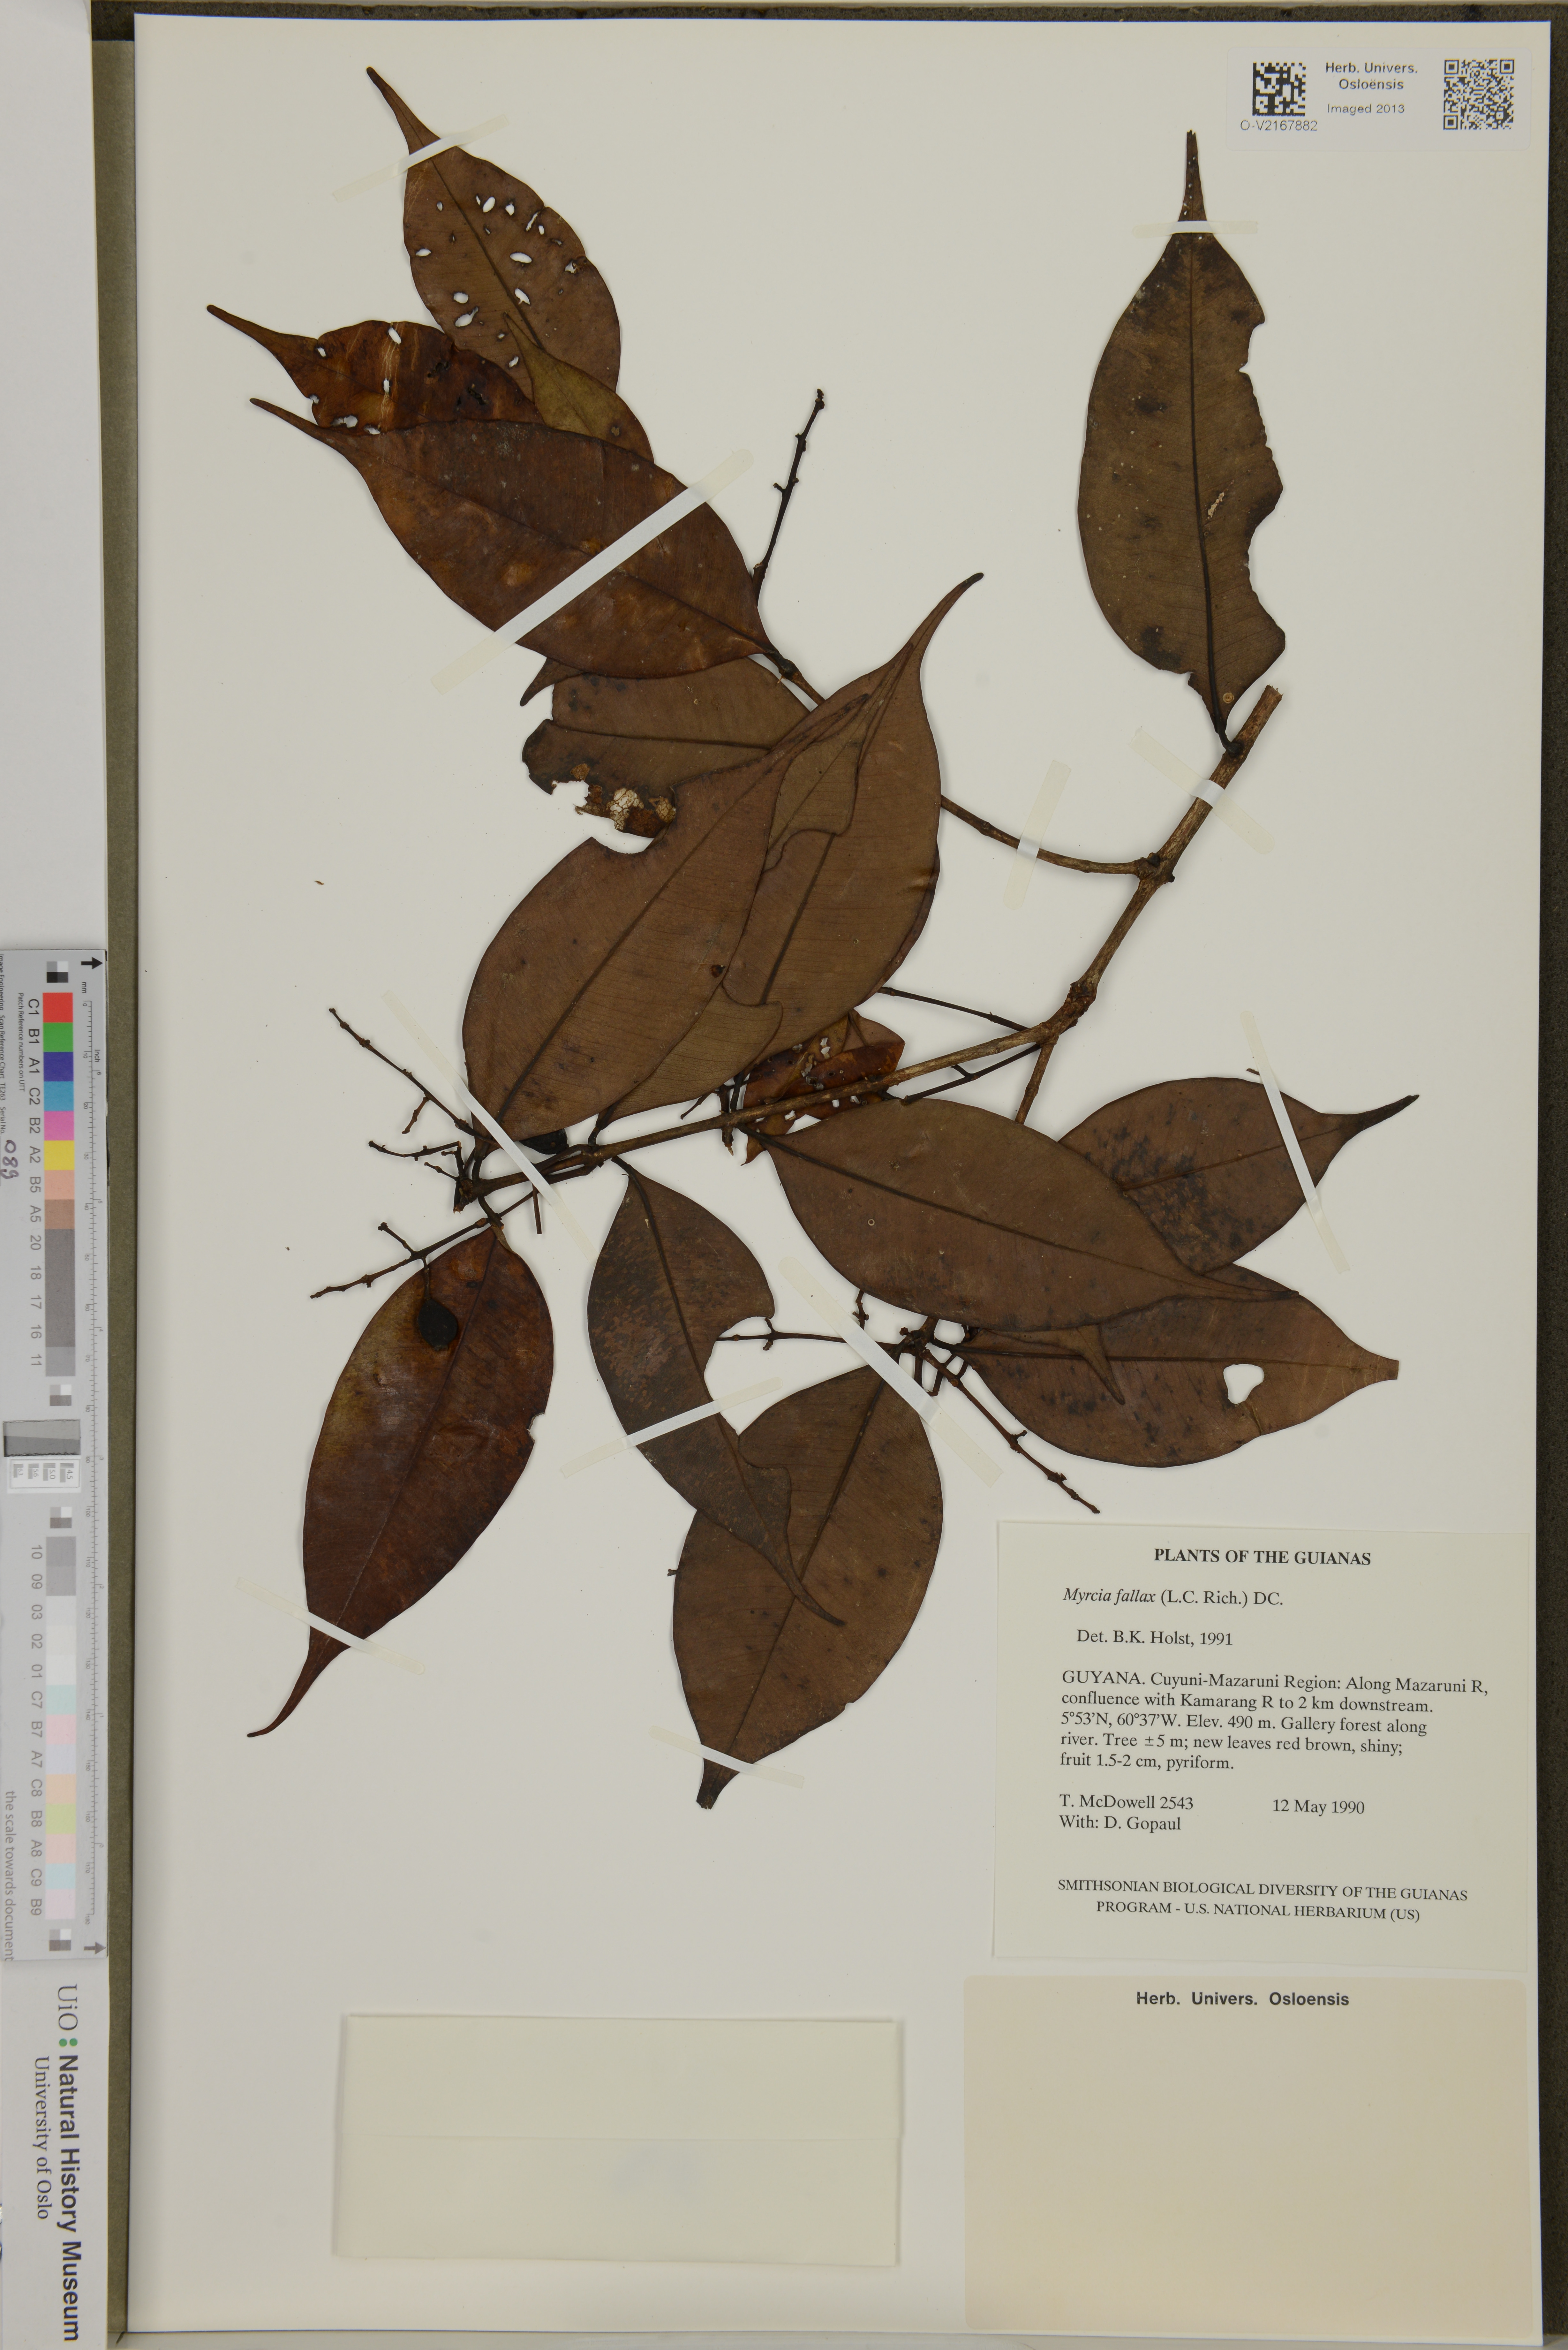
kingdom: Plantae
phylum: Tracheophyta
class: Magnoliopsida
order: Myrtales
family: Myrtaceae
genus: Myrcia
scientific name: Myrcia splendens
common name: Surinam cherry
